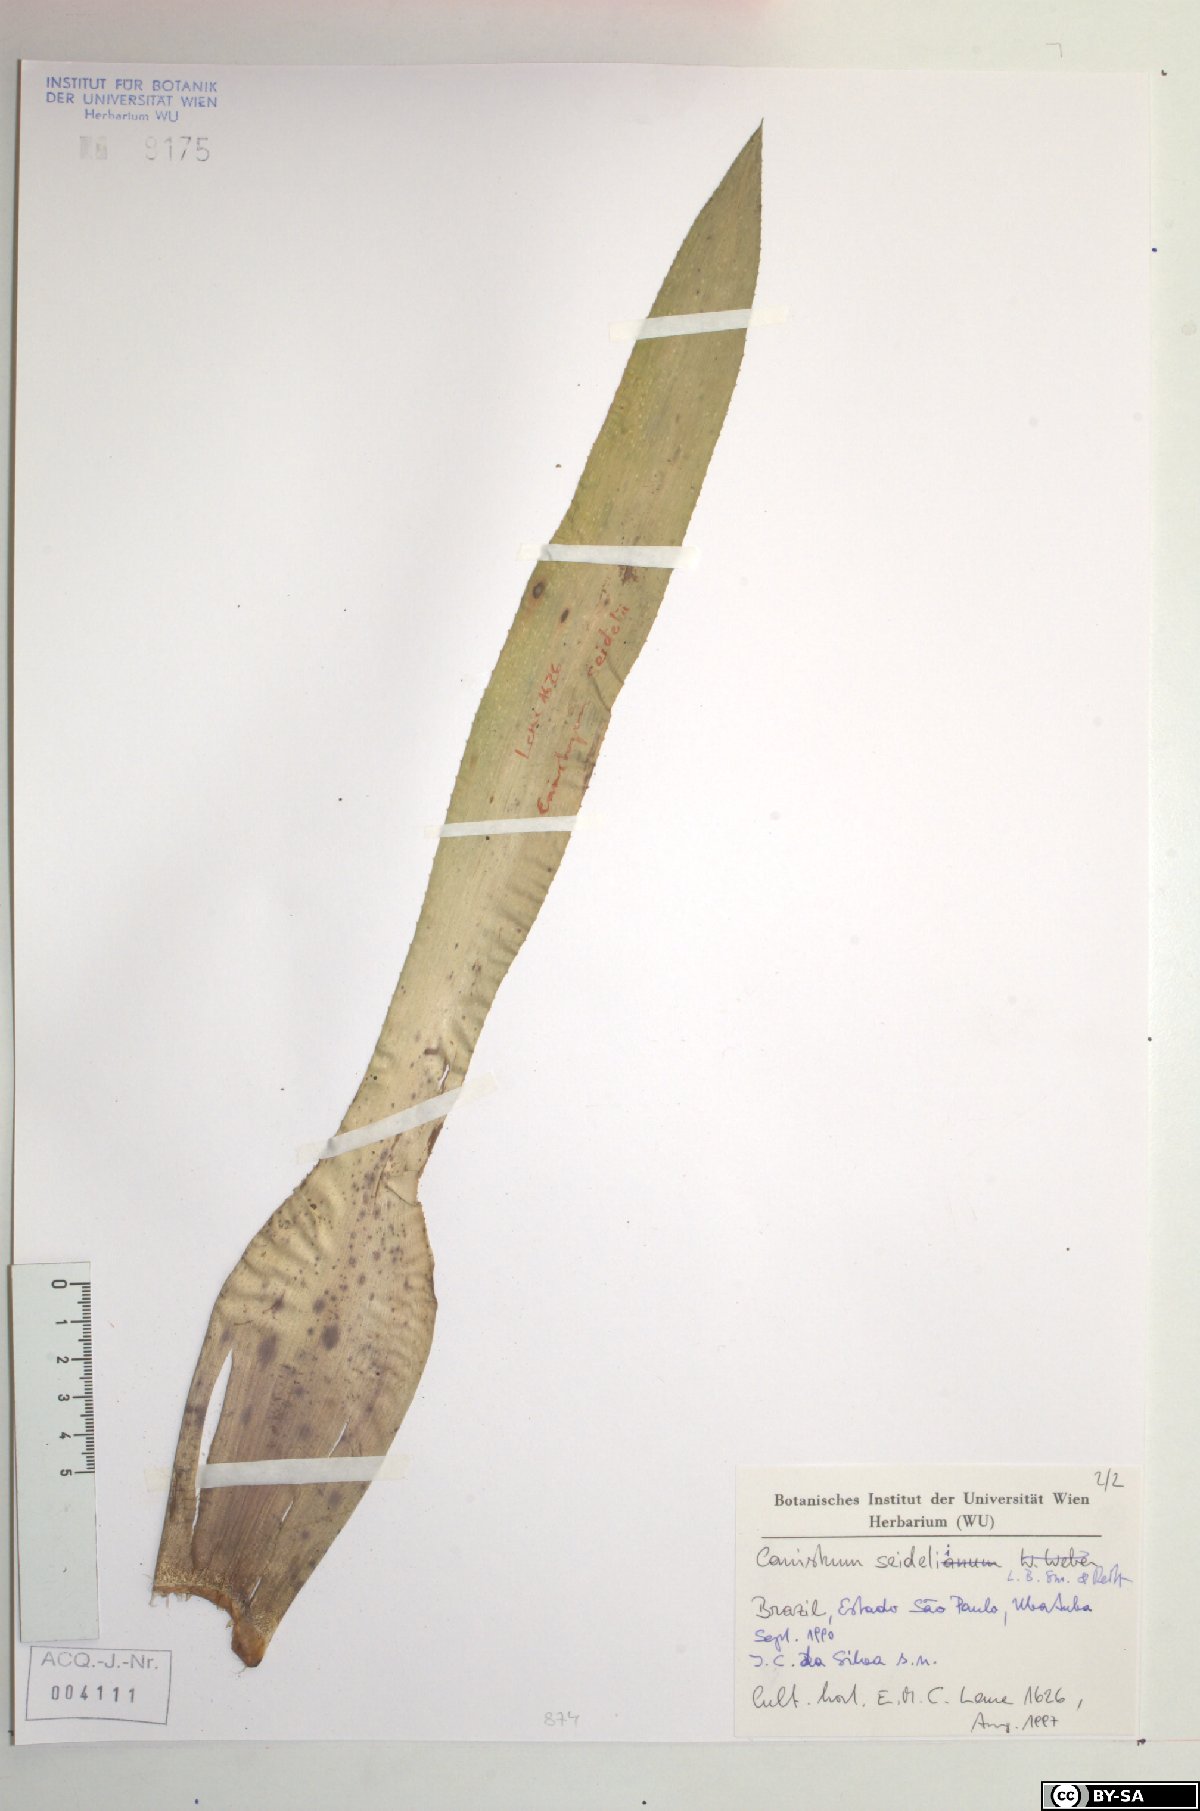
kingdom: Plantae
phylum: Tracheophyta
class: Liliopsida
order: Poales
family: Bromeliaceae
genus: Canistrum
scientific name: Canistrum seidelianum
